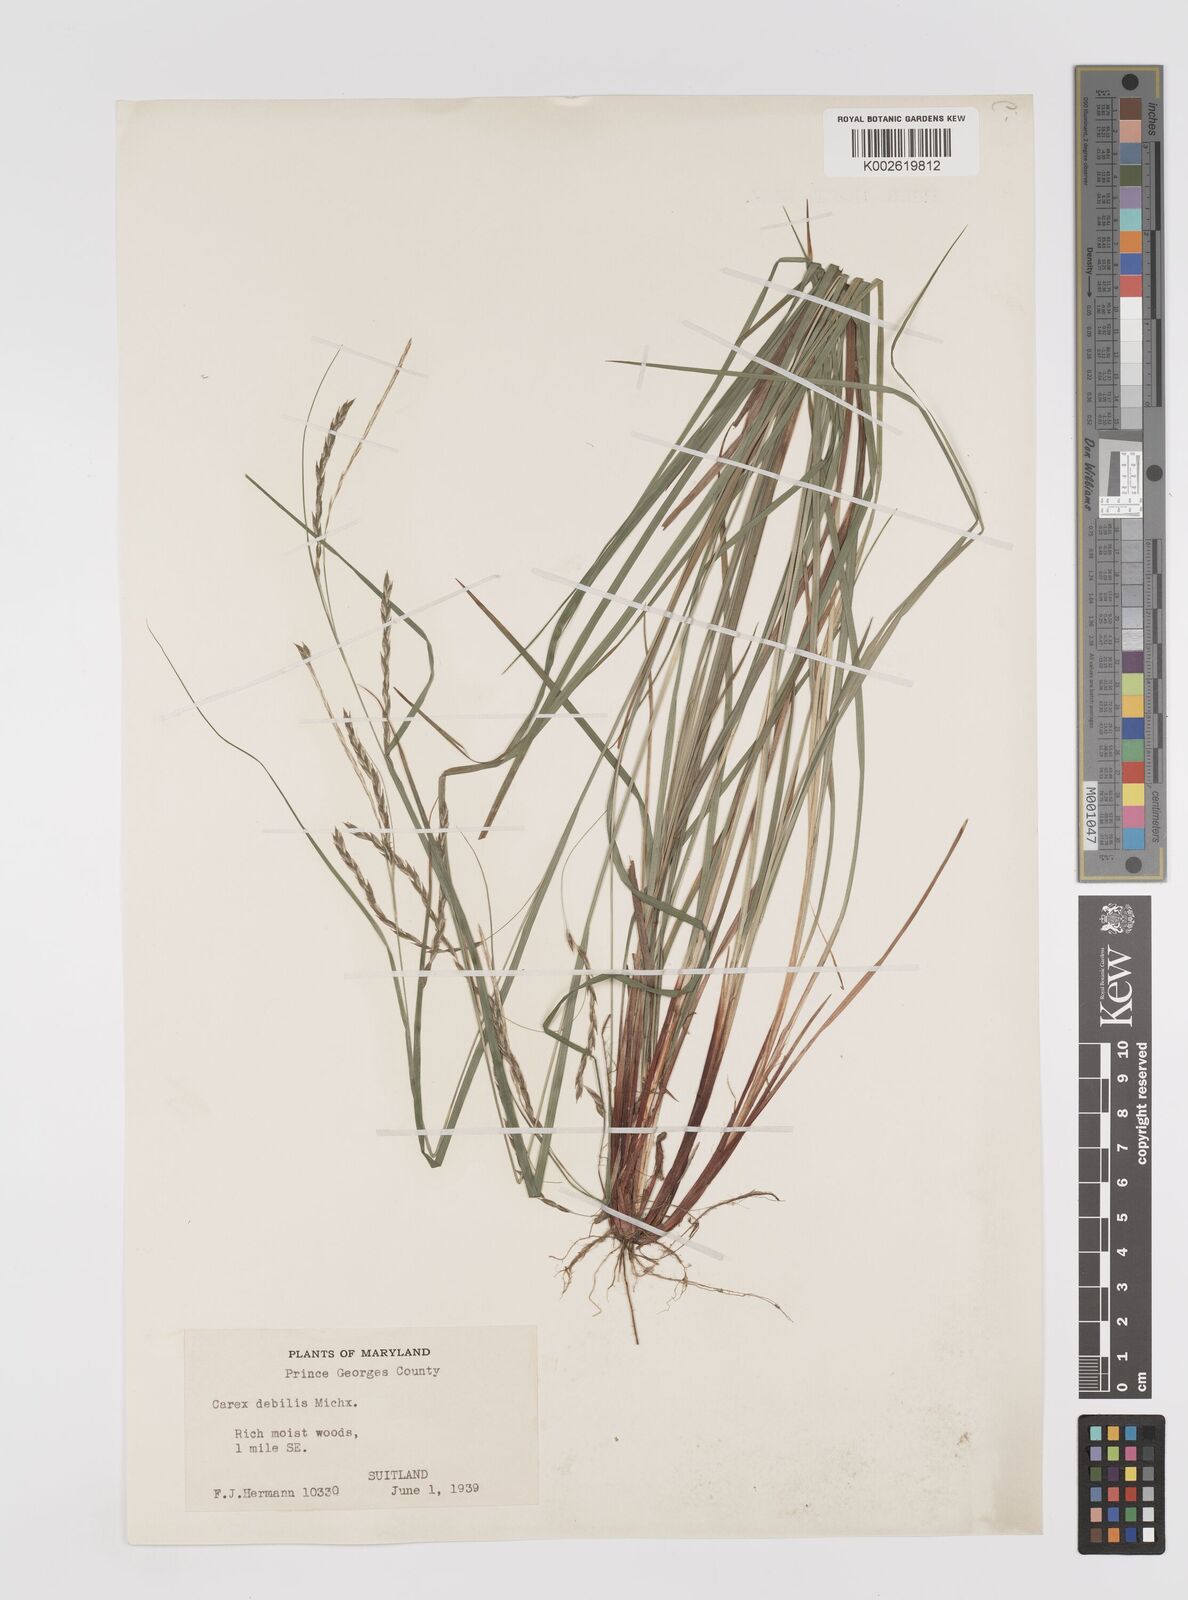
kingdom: Plantae
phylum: Tracheophyta
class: Liliopsida
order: Poales
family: Cyperaceae
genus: Carex
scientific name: Carex debilis
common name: White-edge sedge
